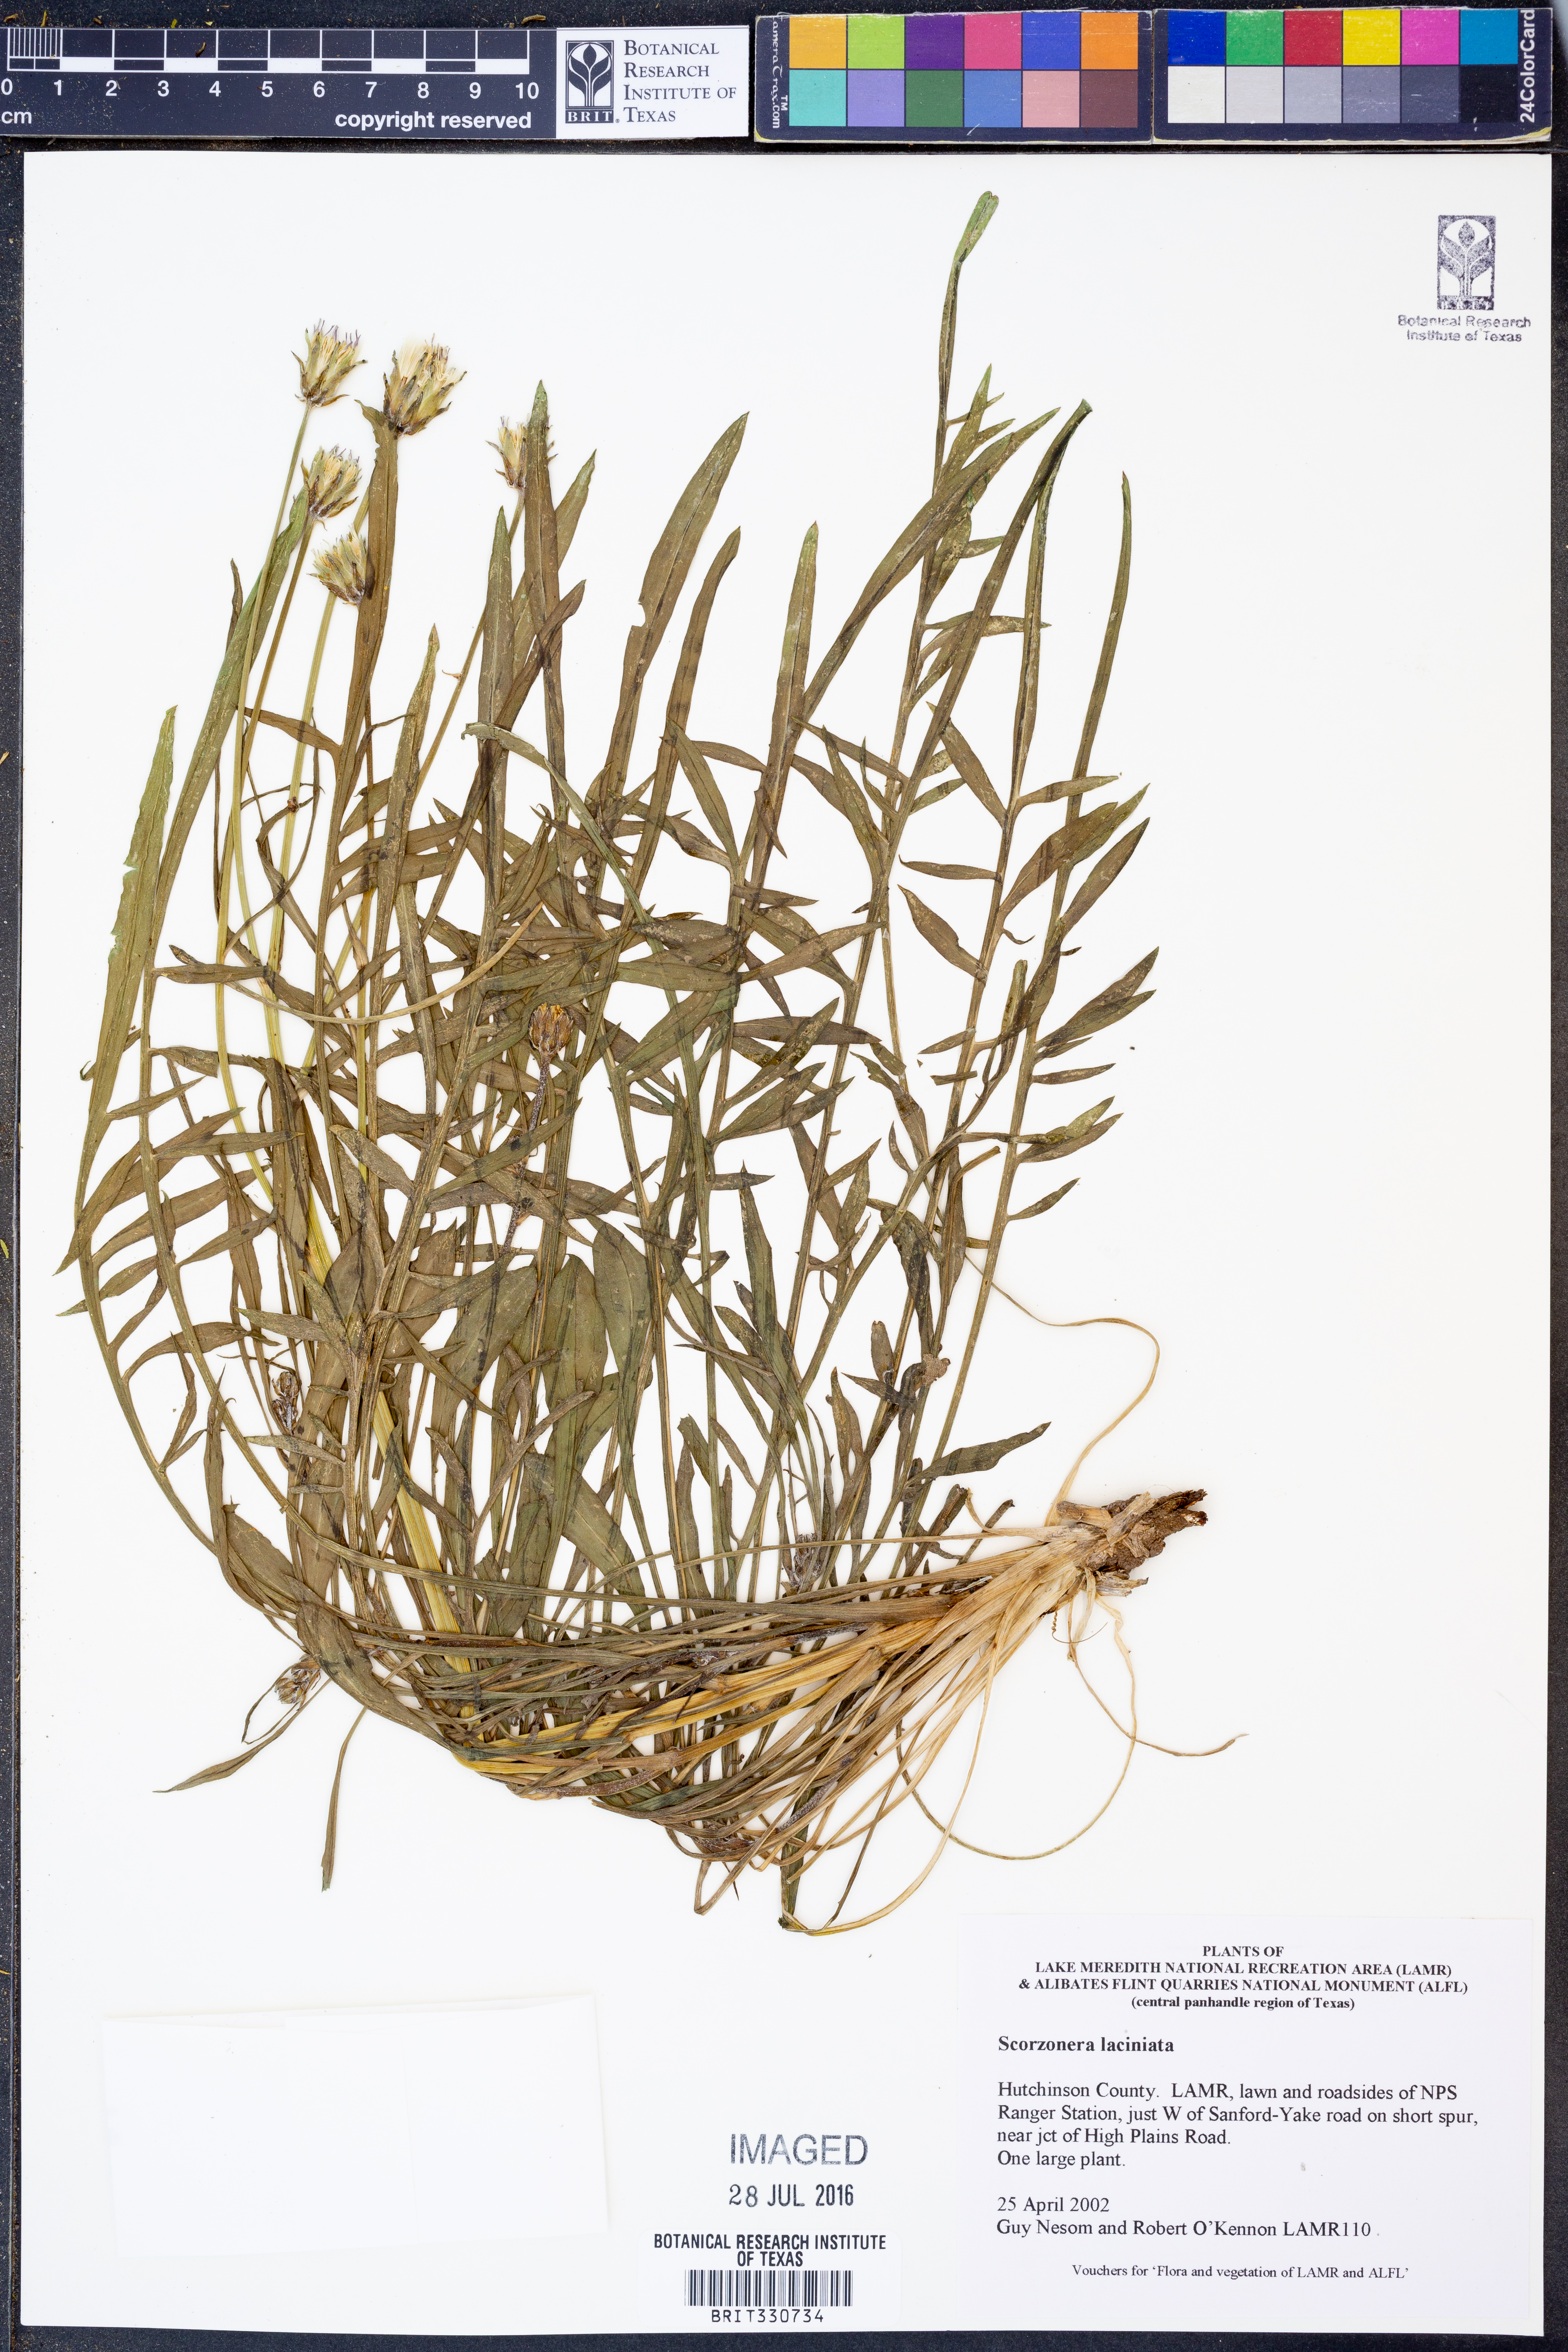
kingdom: Plantae
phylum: Tracheophyta
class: Magnoliopsida
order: Asterales
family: Asteraceae
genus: Scorzonera
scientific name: Scorzonera laciniata
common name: Cutleaf vipergrass
